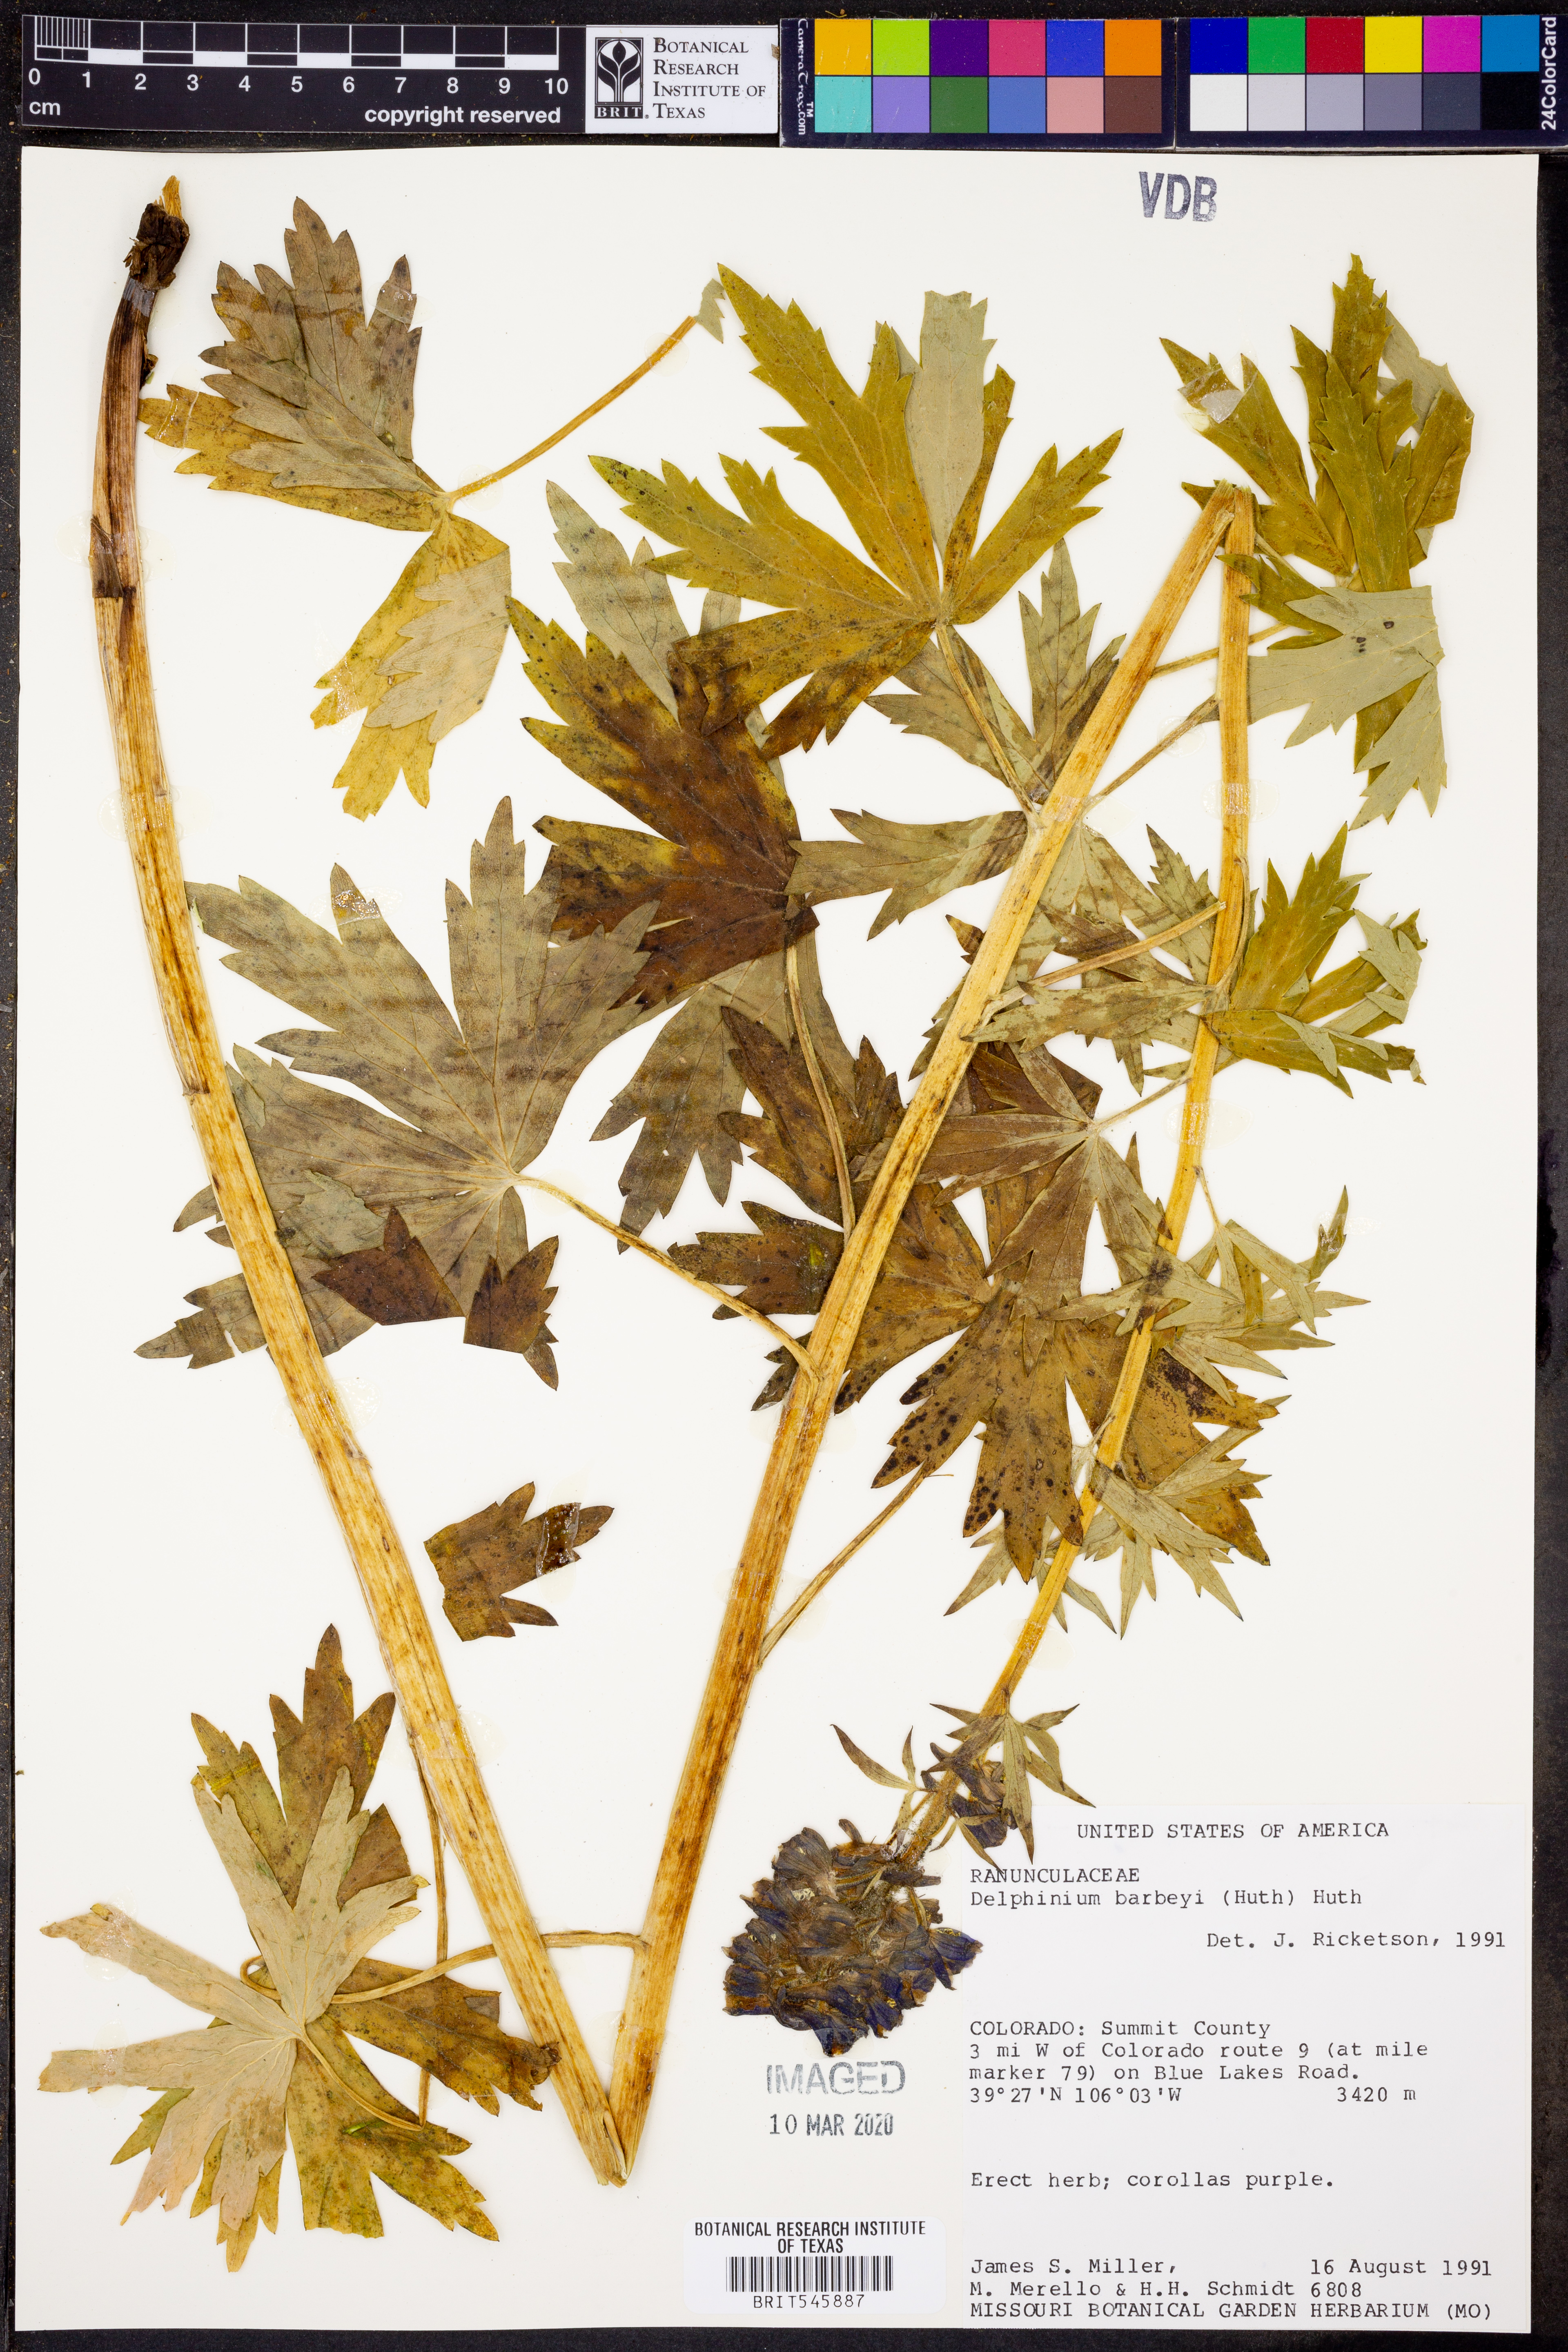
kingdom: Plantae
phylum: Tracheophyta
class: Magnoliopsida
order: Ranunculales
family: Ranunculaceae
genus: Delphinium
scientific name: Delphinium barbeyi
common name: Subalpine larkspur
